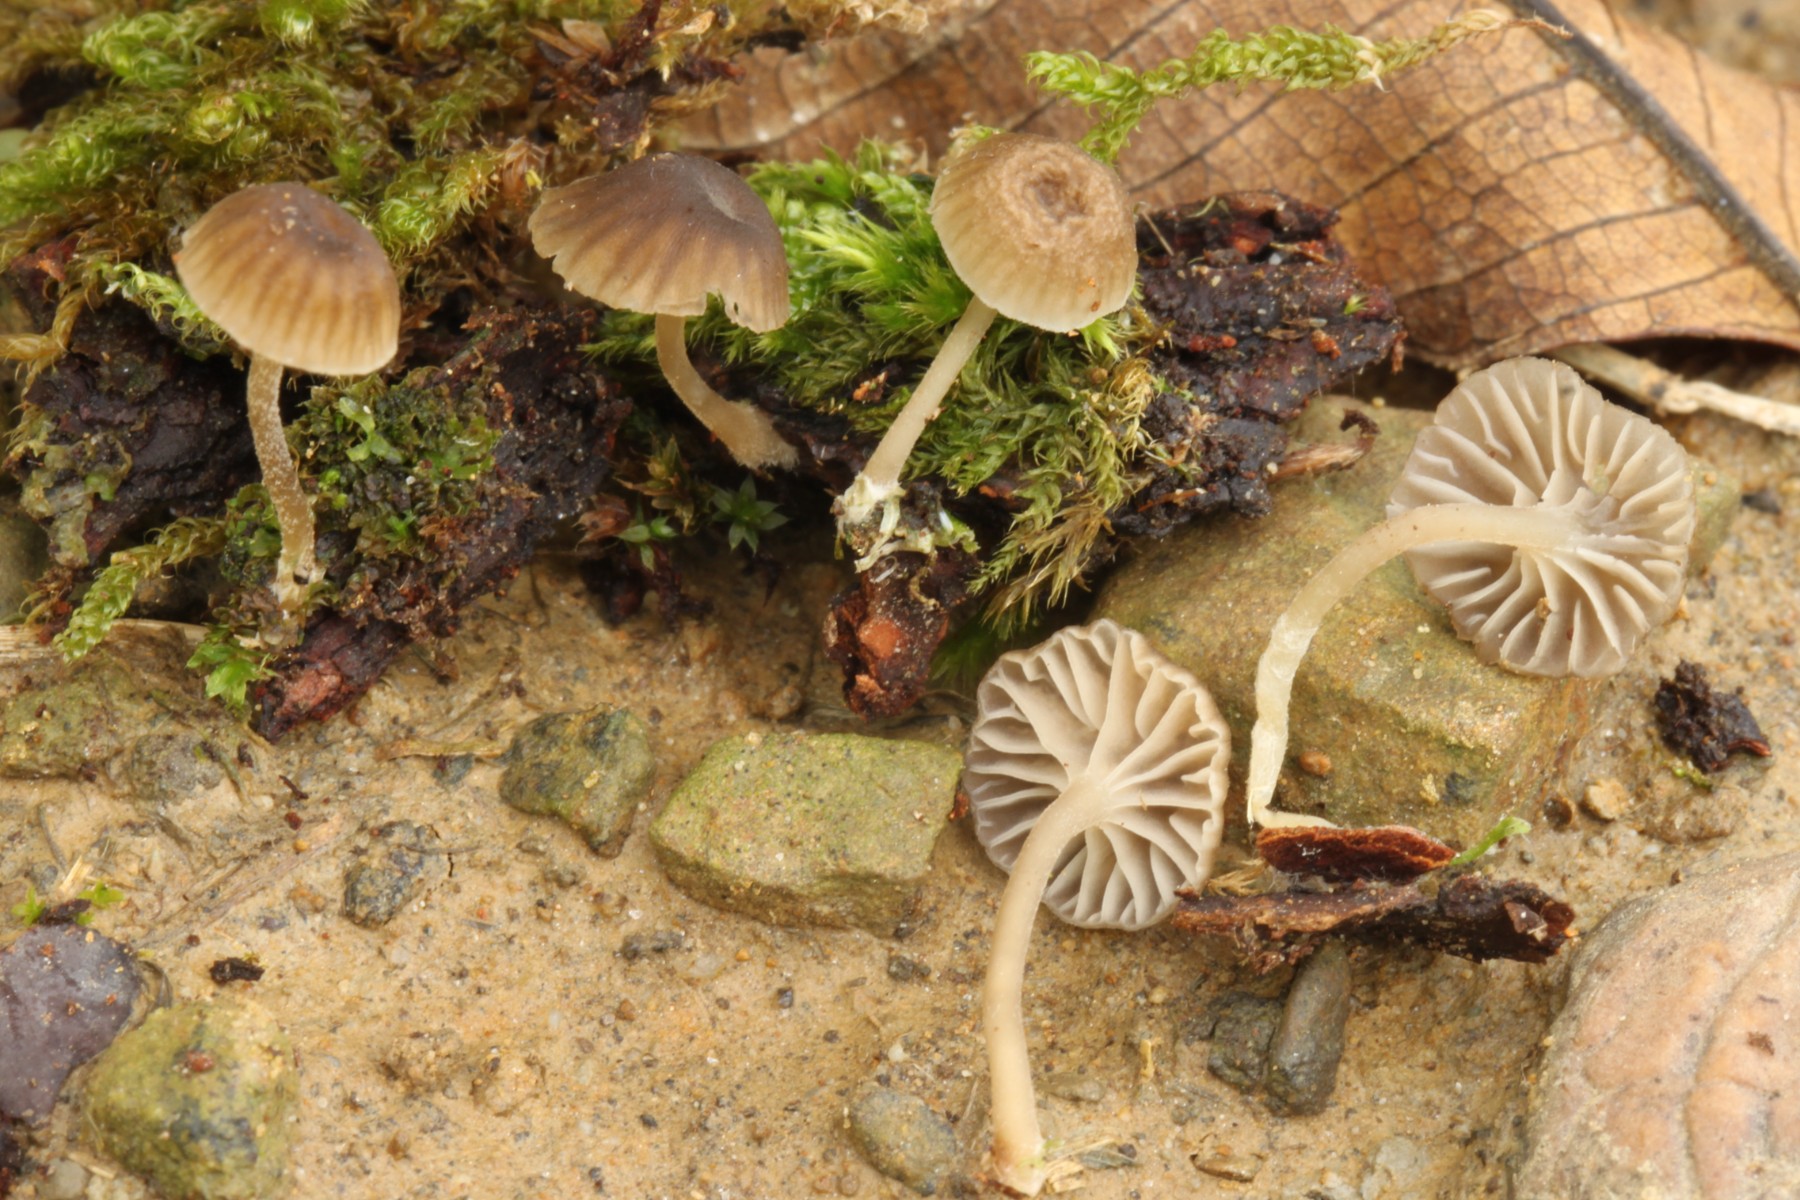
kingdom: Fungi
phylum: Basidiomycota
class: Agaricomycetes
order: Agaricales
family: Porotheleaceae
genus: Phloeomana
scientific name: Phloeomana clavata
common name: brunbladet huesvamp
